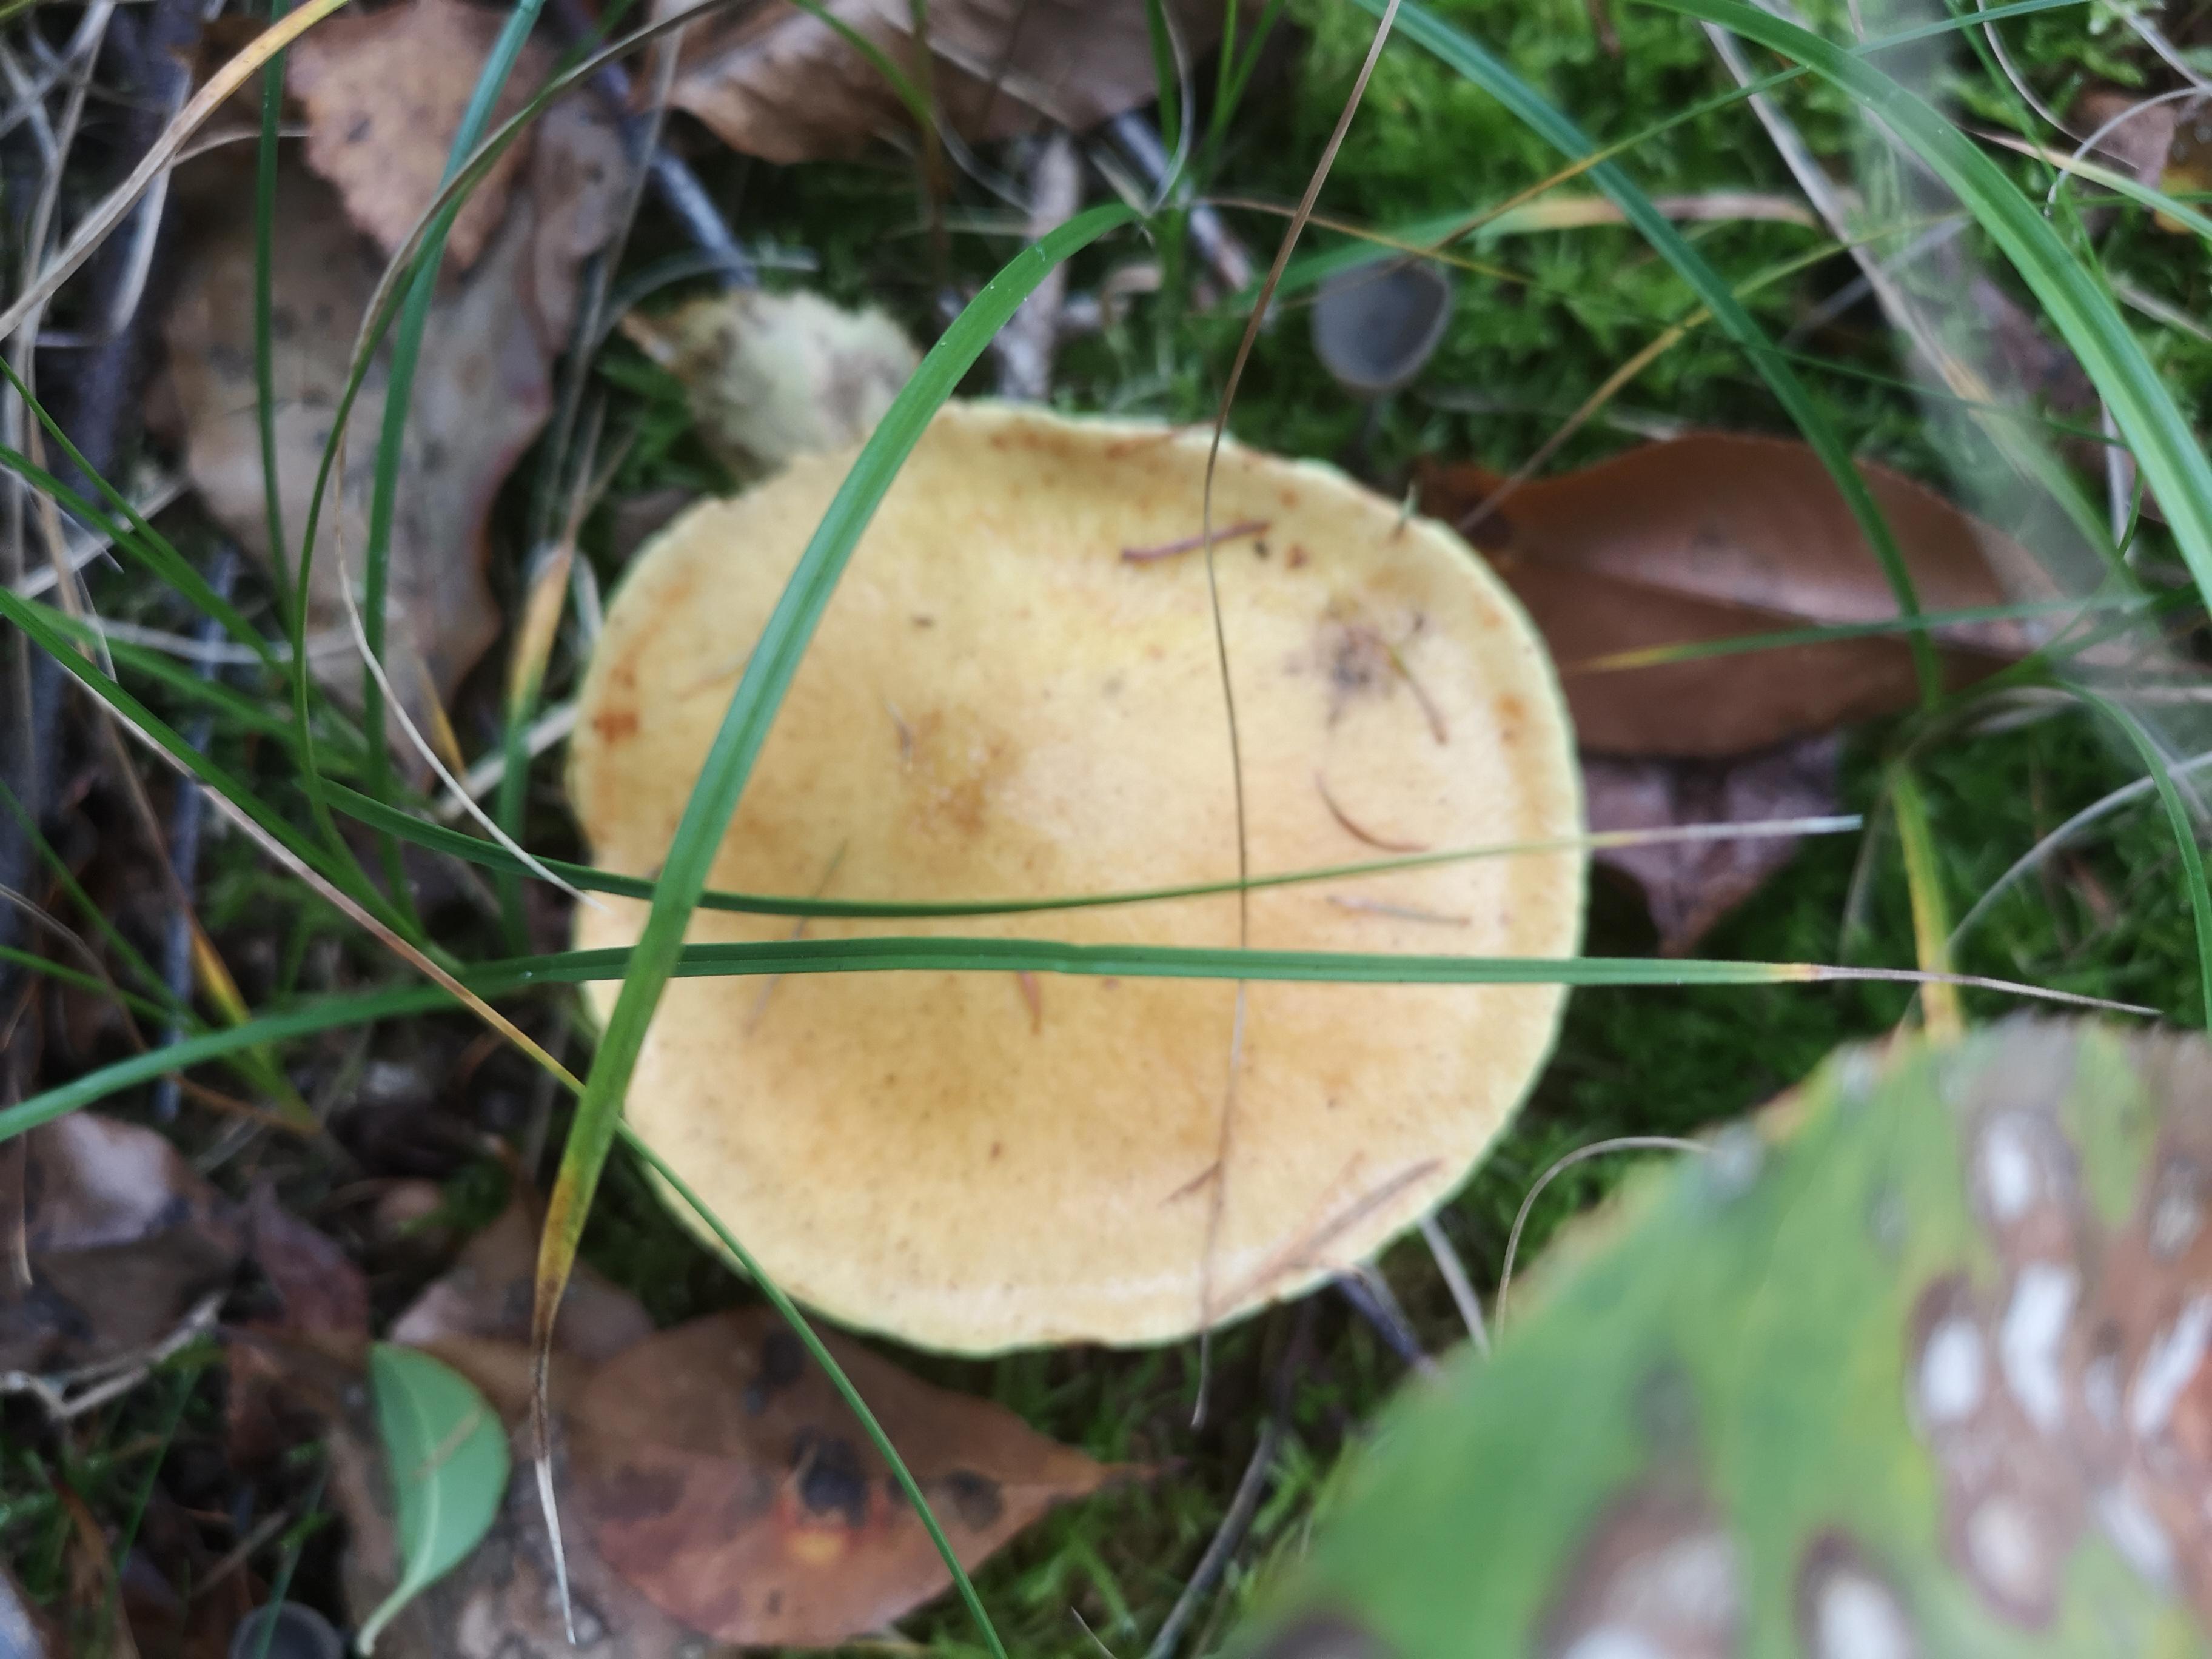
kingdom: Fungi
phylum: Basidiomycota
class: Agaricomycetes
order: Boletales
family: Suillaceae
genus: Suillus
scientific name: Suillus grevillei
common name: lærke-slimrørhat
